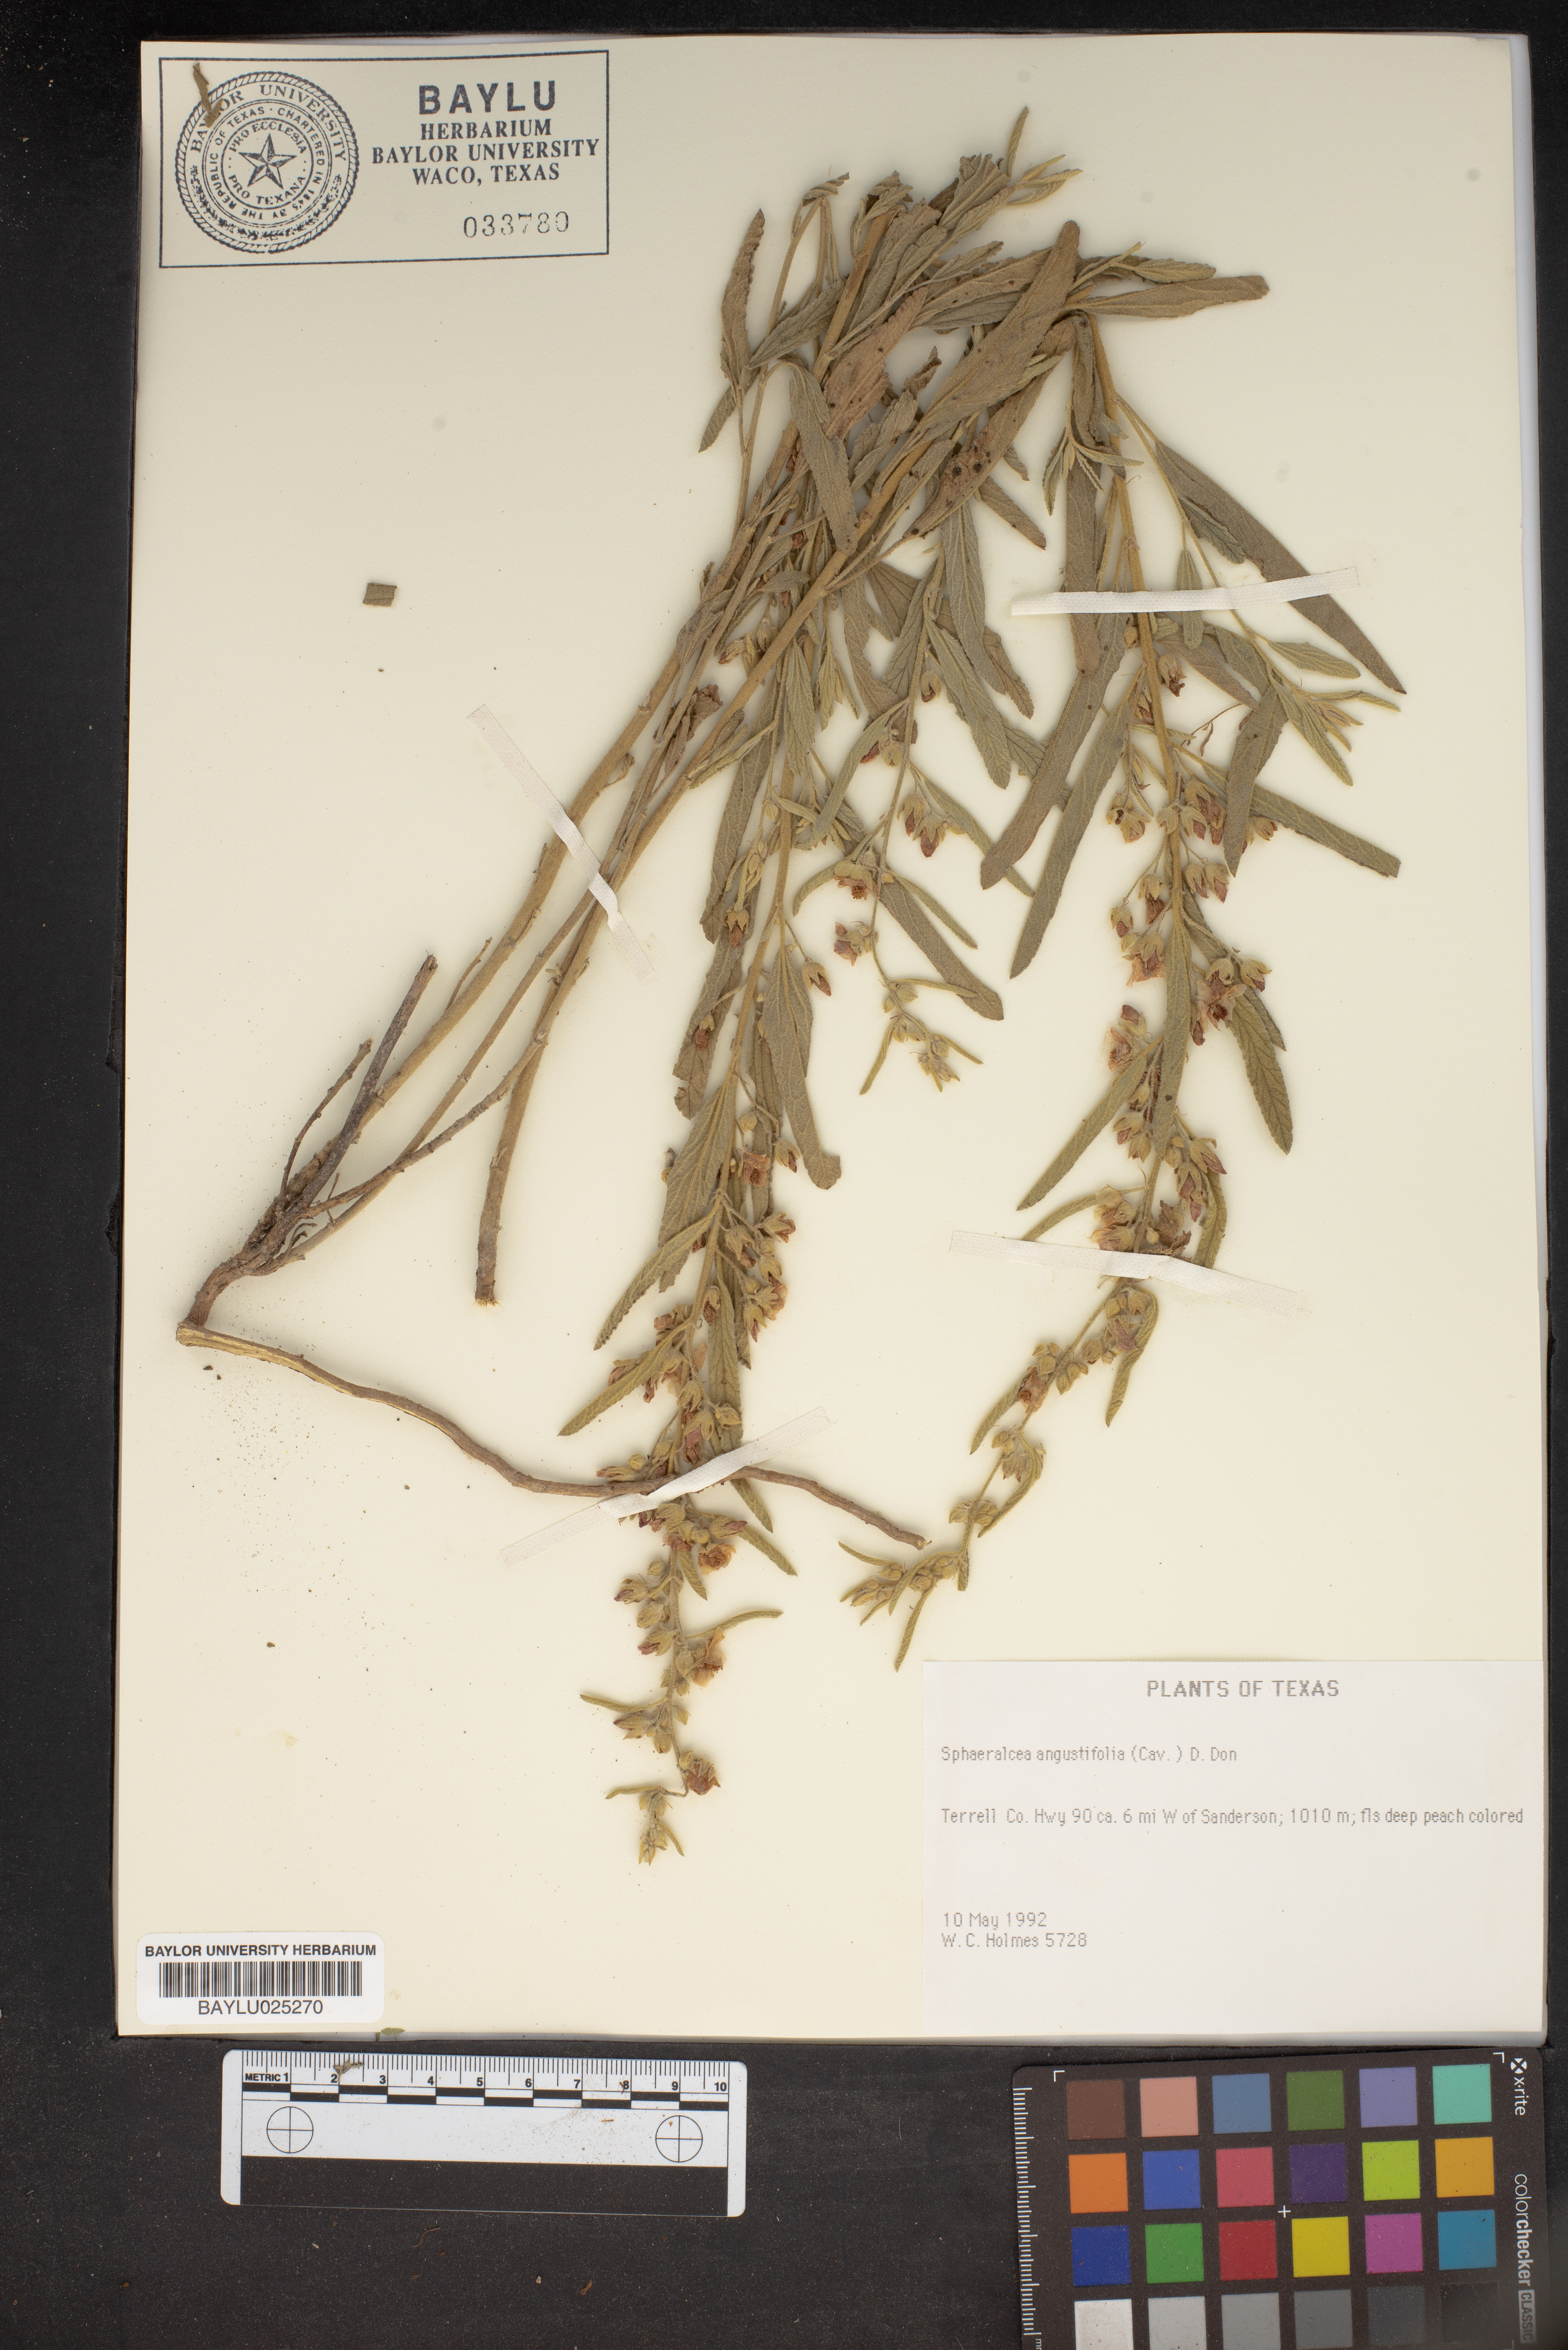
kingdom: Plantae
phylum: Tracheophyta
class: Magnoliopsida
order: Malvales
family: Malvaceae
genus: Sphaeralcea
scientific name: Sphaeralcea angustifolia
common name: Copper globe-mallow
